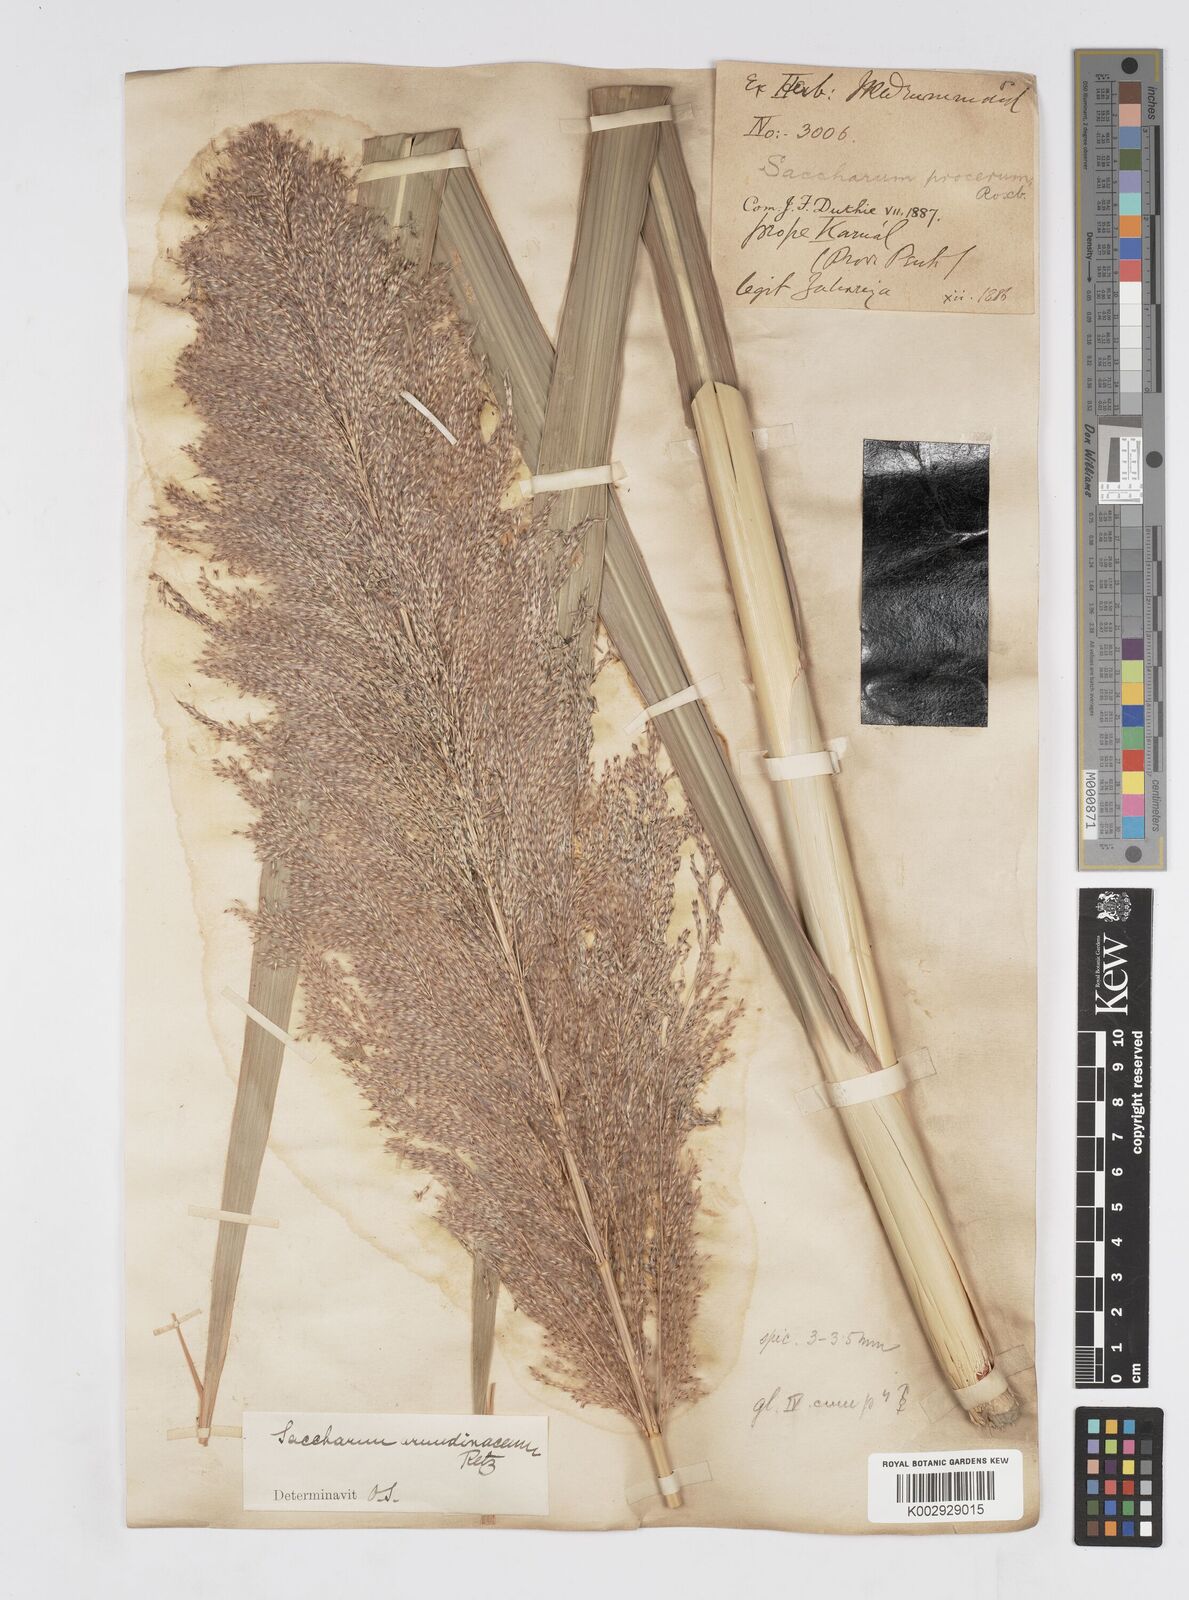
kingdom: Plantae
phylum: Tracheophyta
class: Liliopsida
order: Poales
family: Poaceae
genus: Tripidium
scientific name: Tripidium arundinaceum
